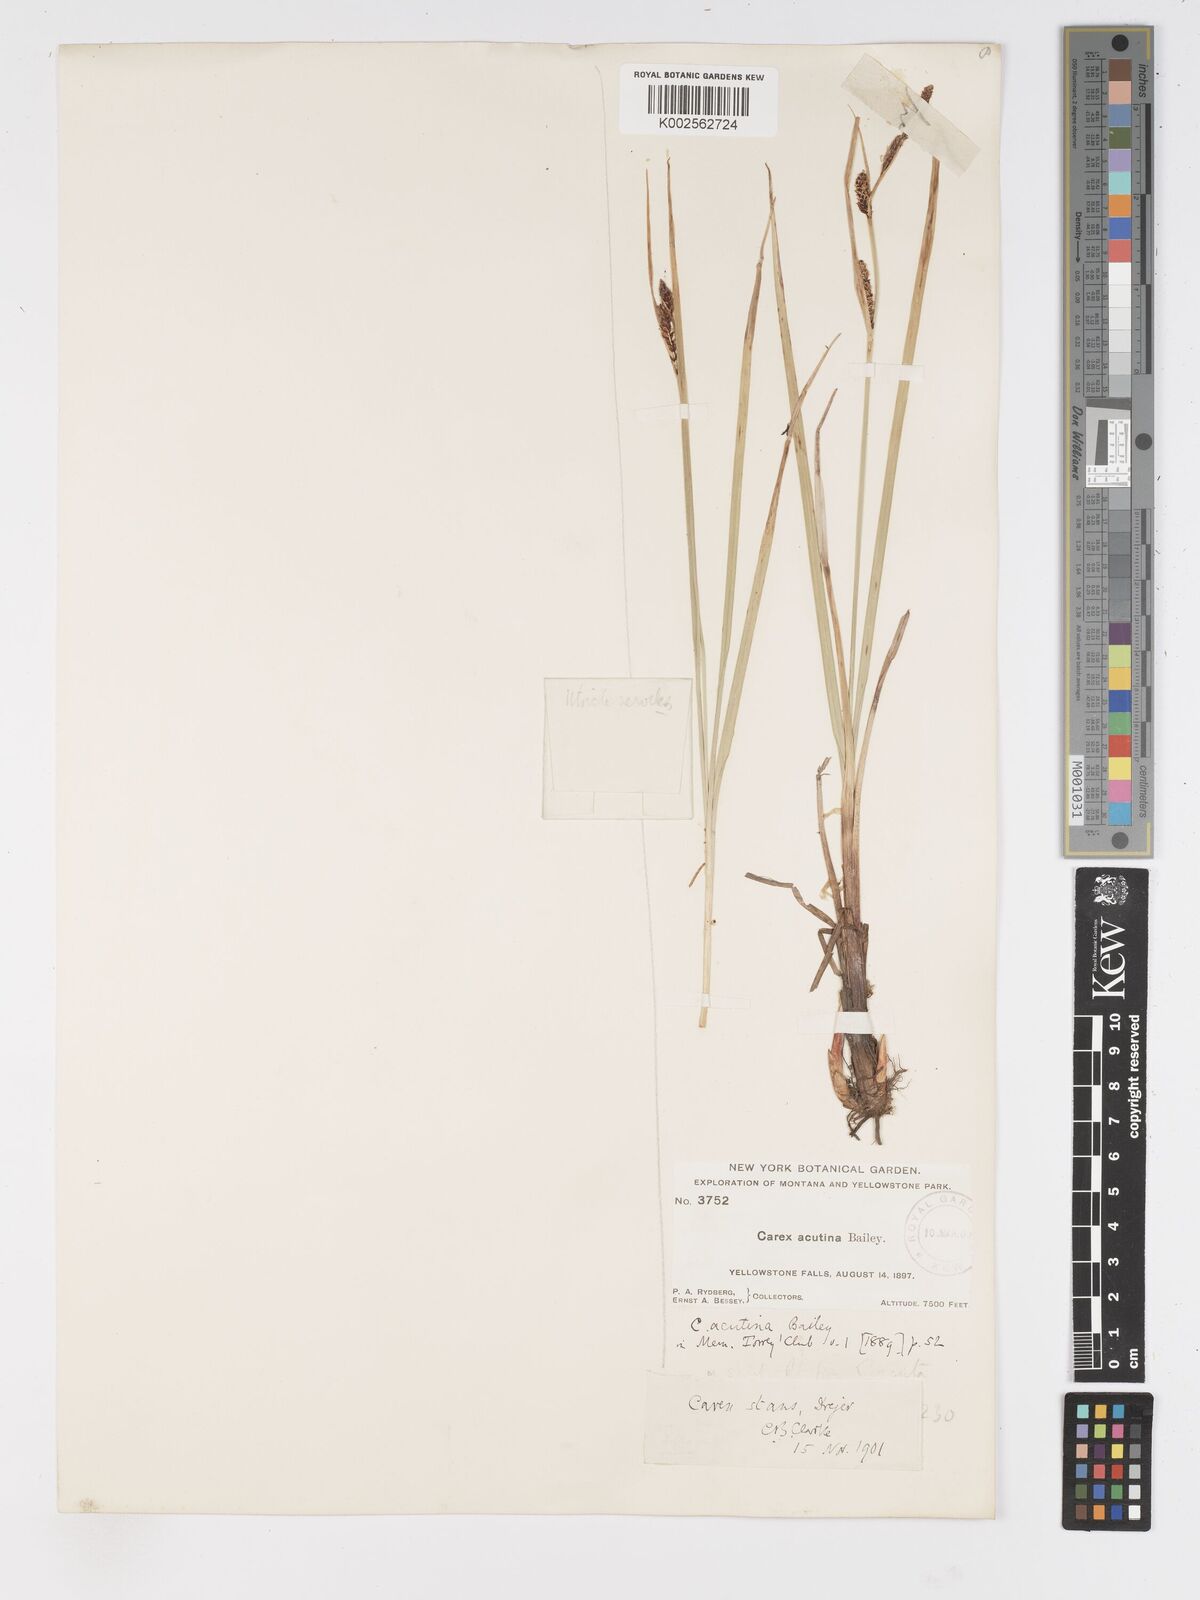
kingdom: Plantae
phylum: Tracheophyta
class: Liliopsida
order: Poales
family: Cyperaceae
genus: Carex
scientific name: Carex angustata
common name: Widefruit sedge
